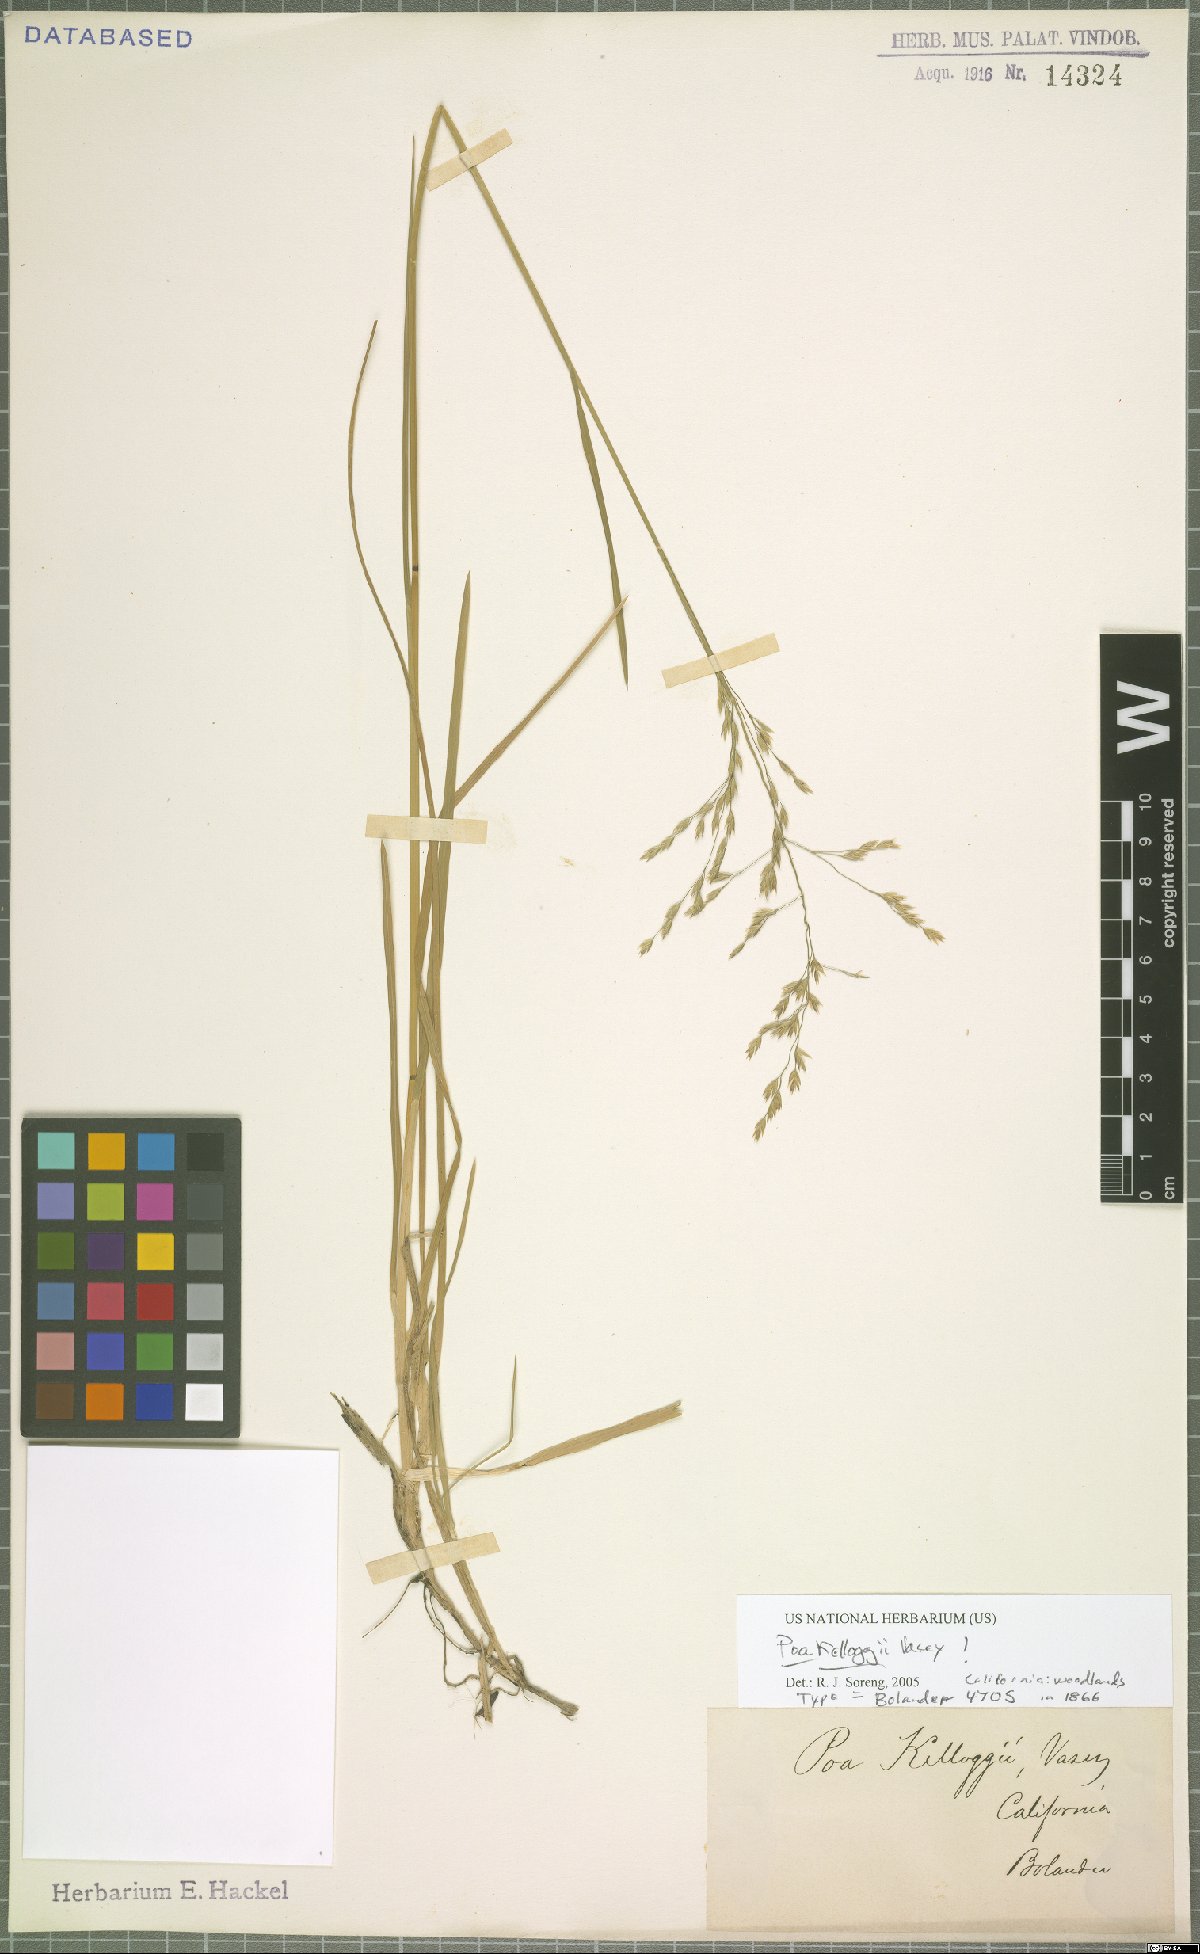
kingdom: Plantae
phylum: Tracheophyta
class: Liliopsida
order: Poales
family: Poaceae
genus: Poa
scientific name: Poa kelloggii
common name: Kellogg's bluegrass
